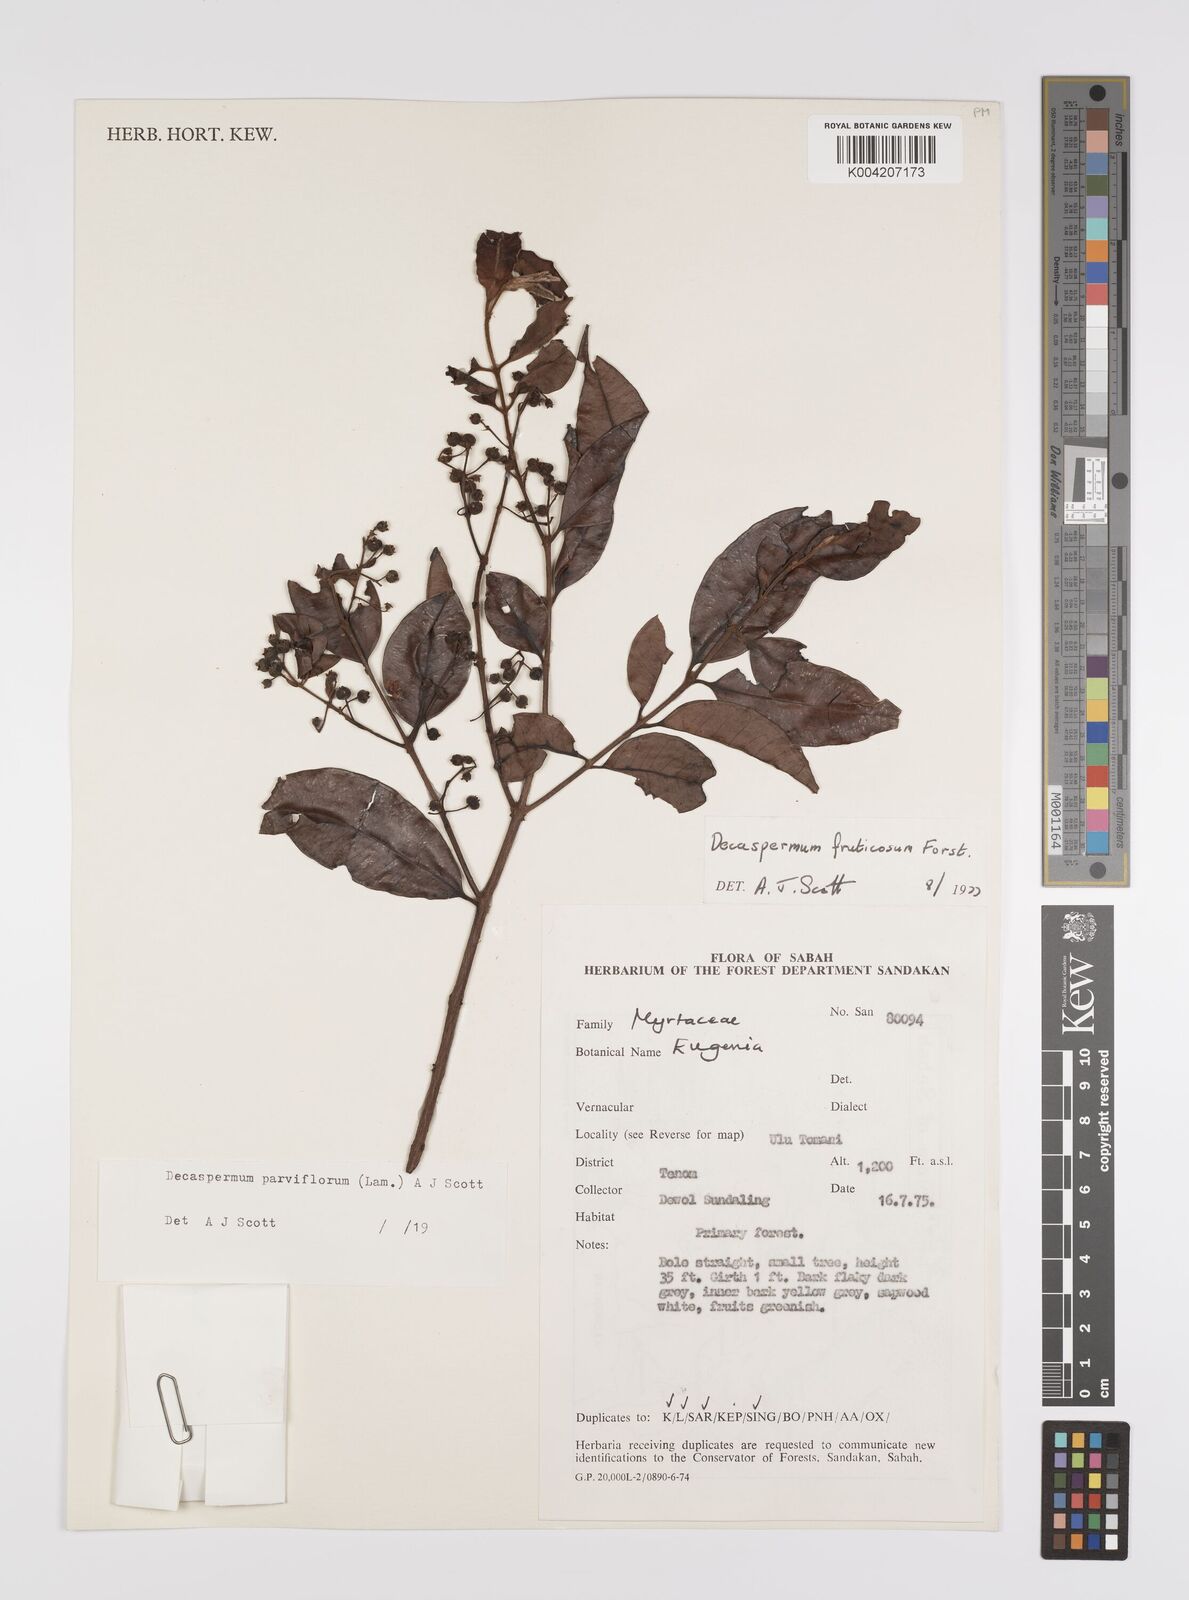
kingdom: Plantae
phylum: Tracheophyta
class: Magnoliopsida
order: Myrtales
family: Myrtaceae
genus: Decaspermum
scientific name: Decaspermum fruticosum
